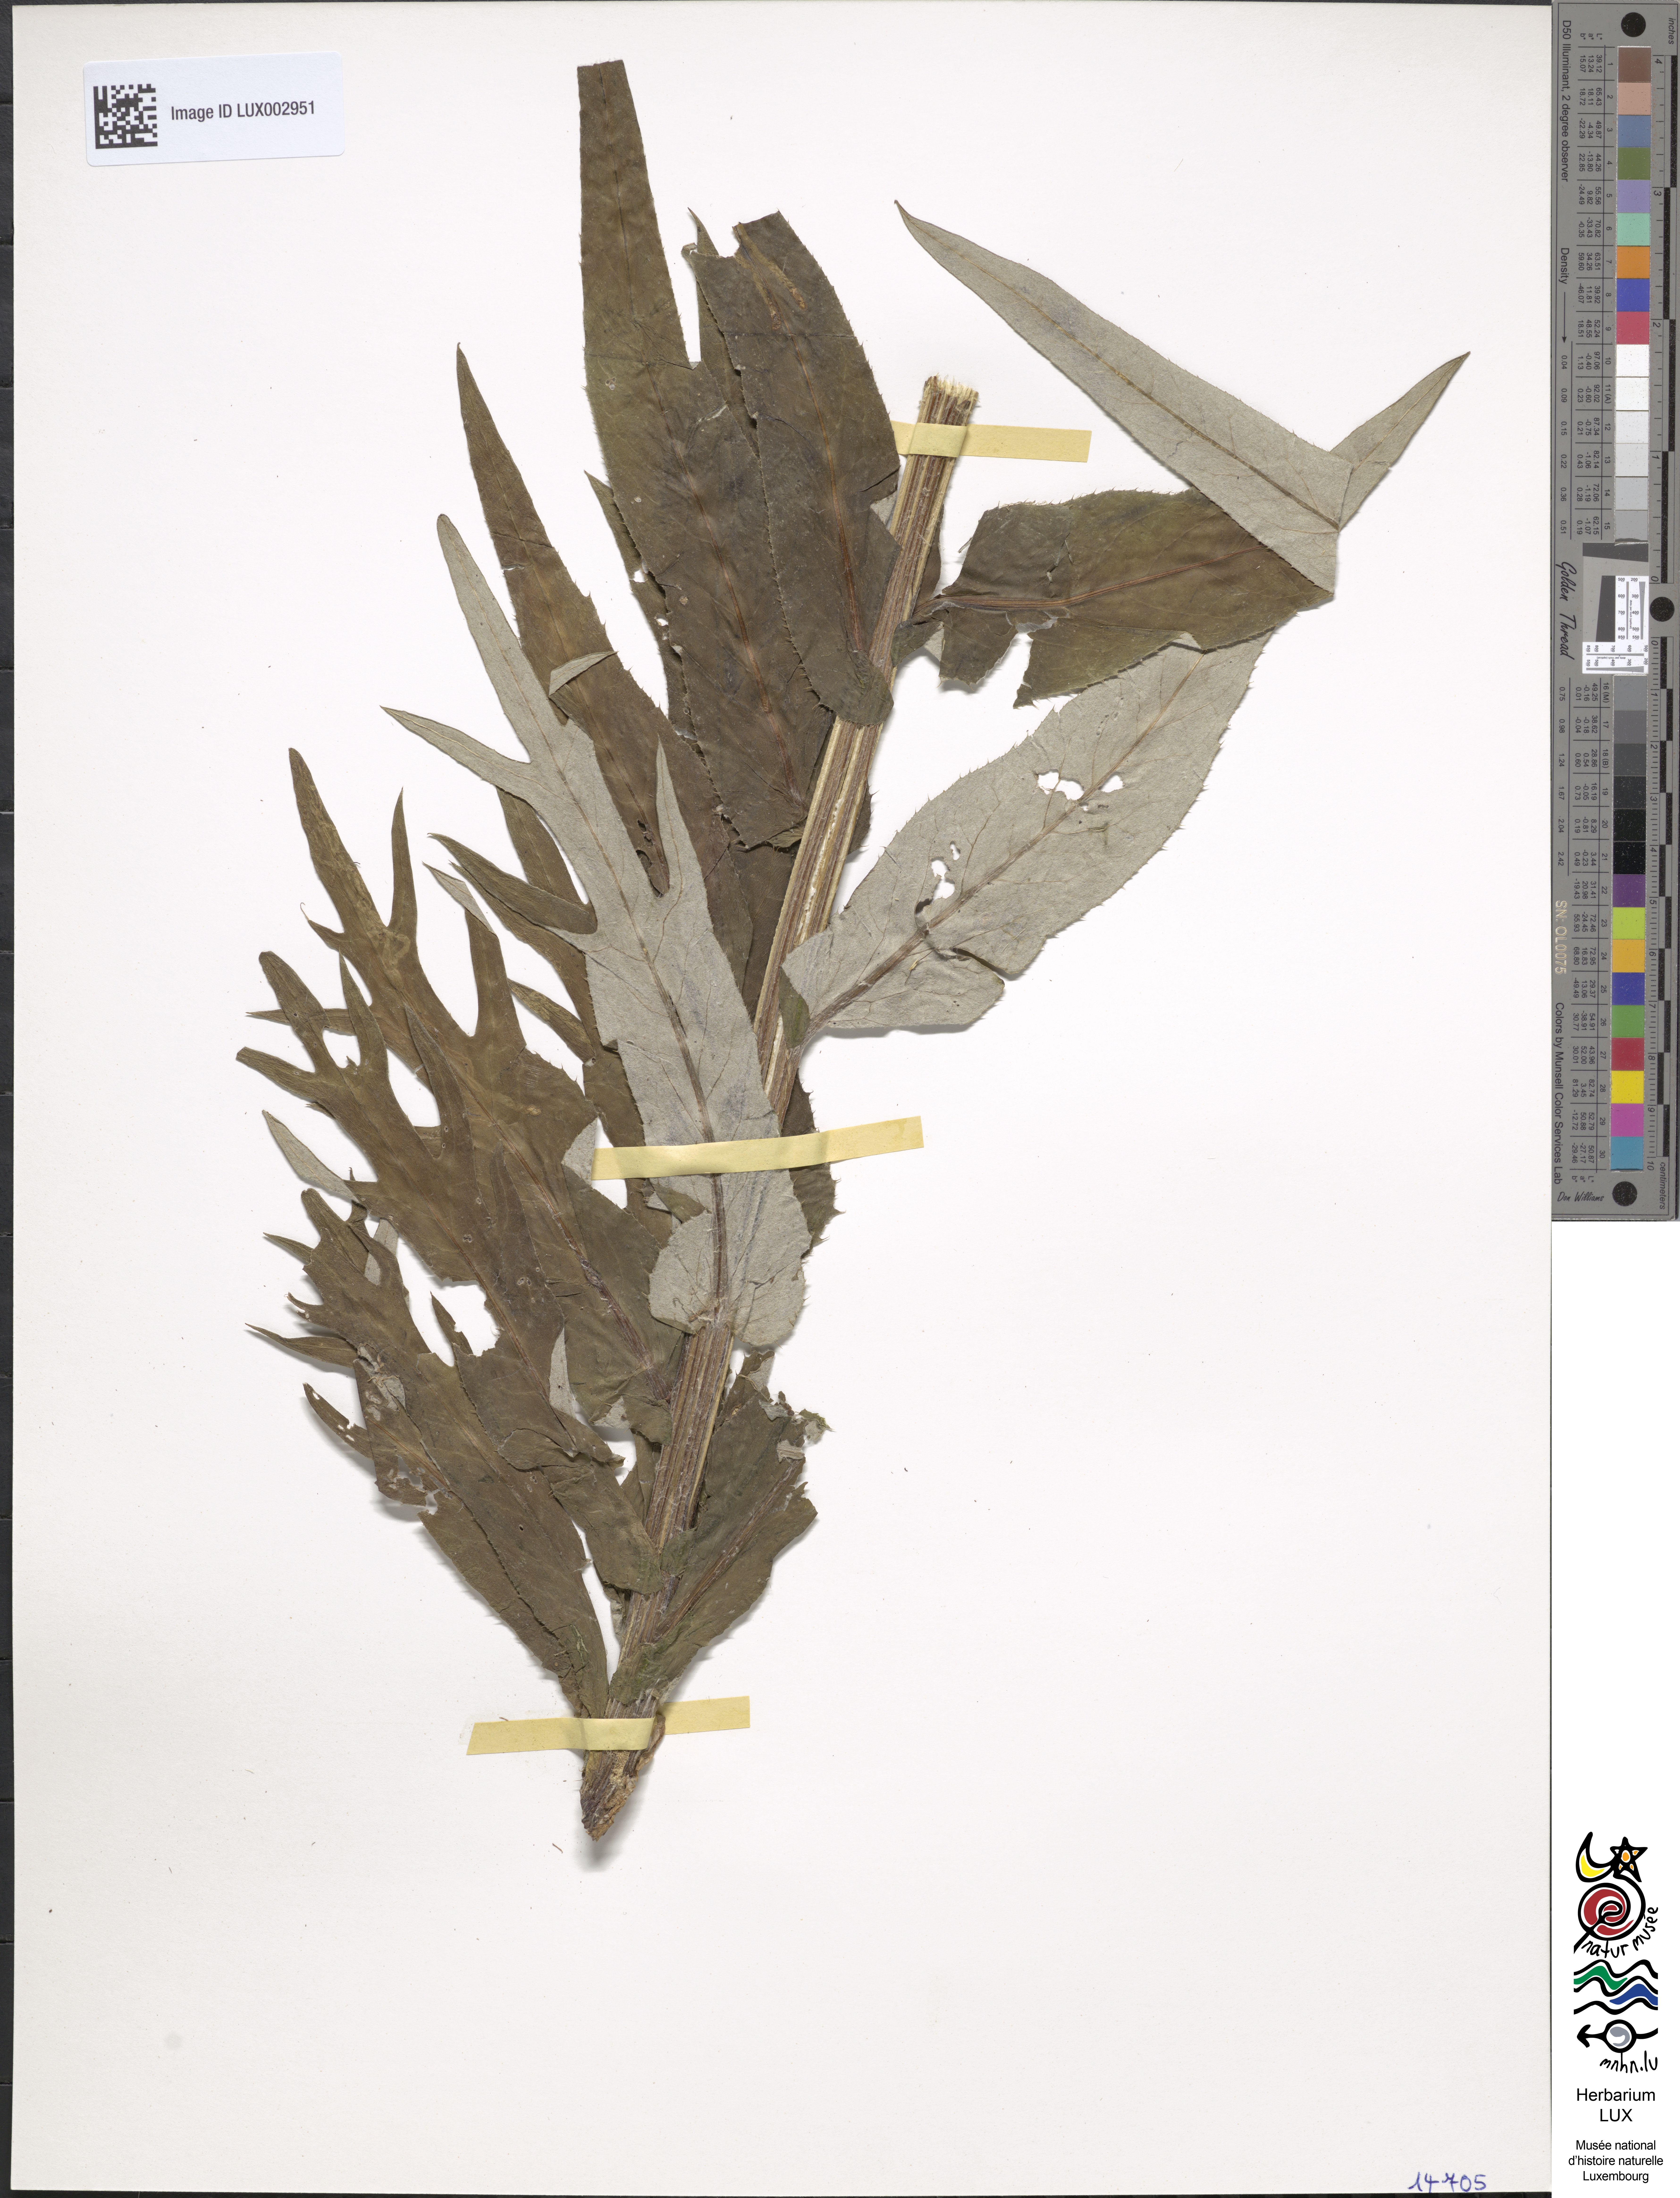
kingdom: Plantae
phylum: Tracheophyta
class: Magnoliopsida
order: Asterales
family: Asteraceae
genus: Cirsium
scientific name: Cirsium heterophyllum
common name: Melancholy thistle
